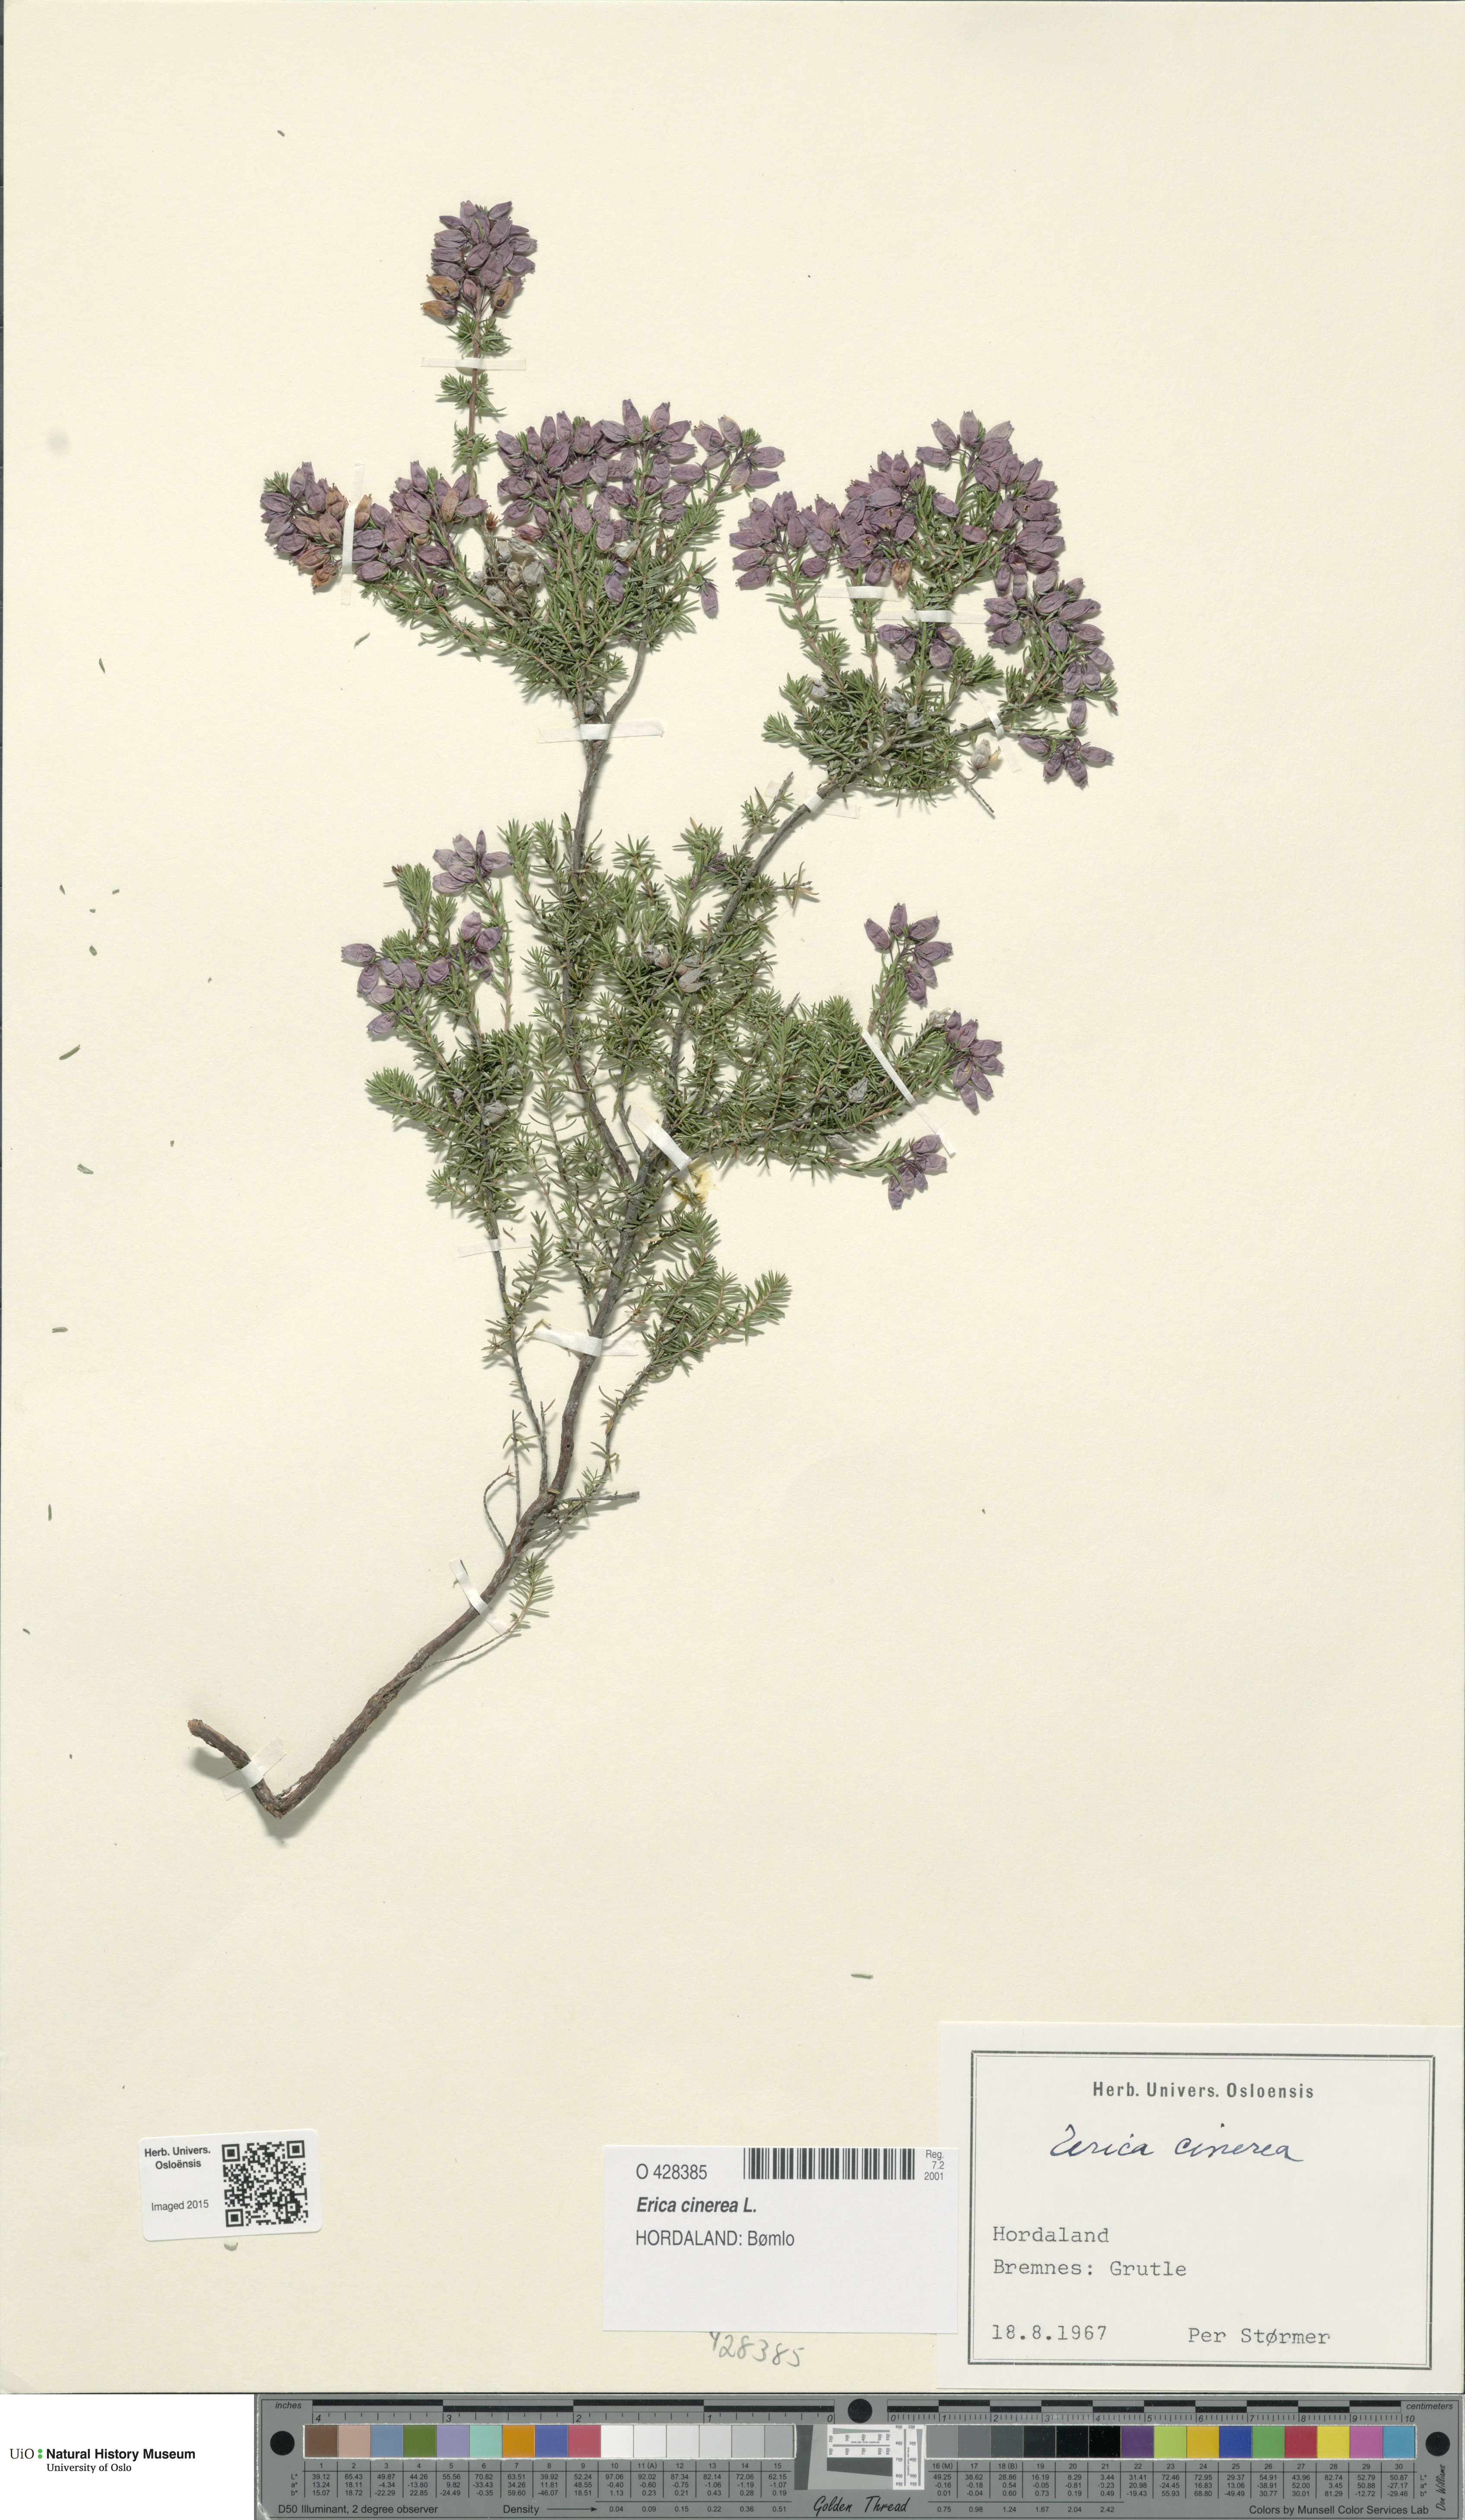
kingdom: Plantae
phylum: Tracheophyta
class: Magnoliopsida
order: Ericales
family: Ericaceae
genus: Erica
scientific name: Erica cinerea
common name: Bell heather
